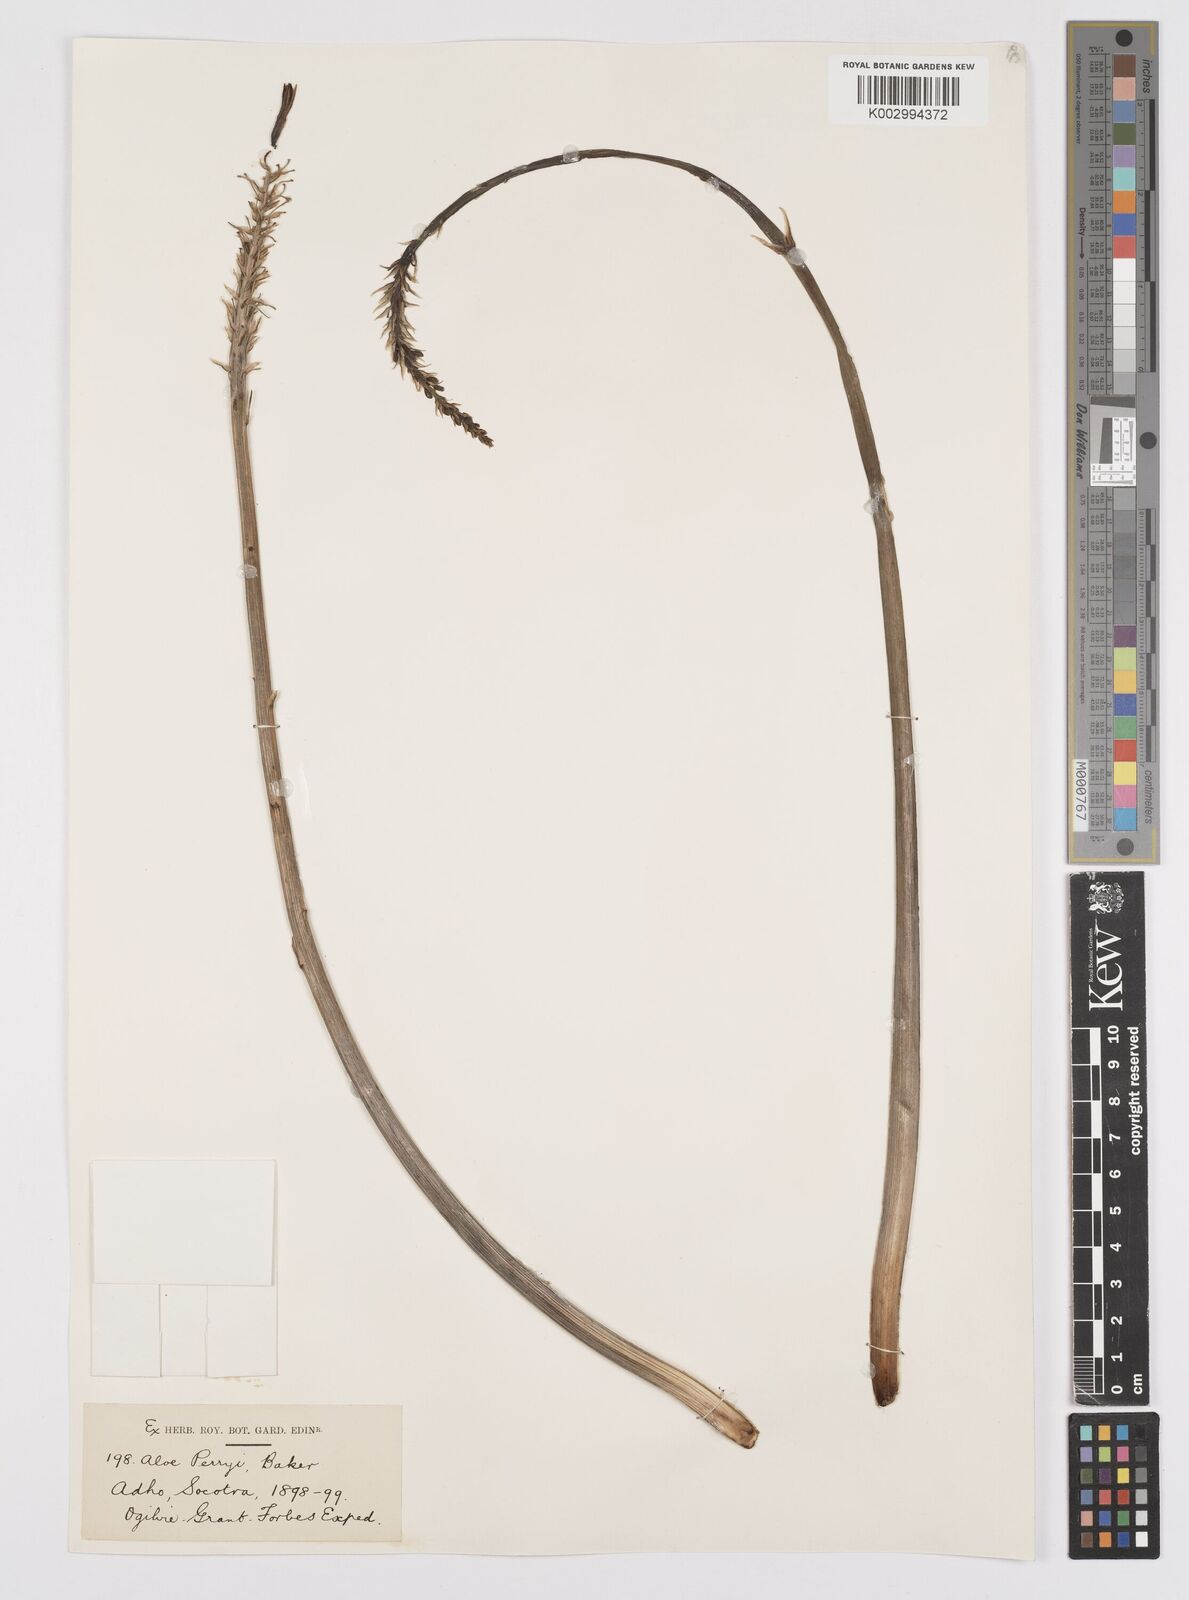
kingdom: Plantae
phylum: Tracheophyta
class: Liliopsida
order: Asparagales
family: Asphodelaceae
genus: Aloe
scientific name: Aloe perryi
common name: Socotrine aloe
